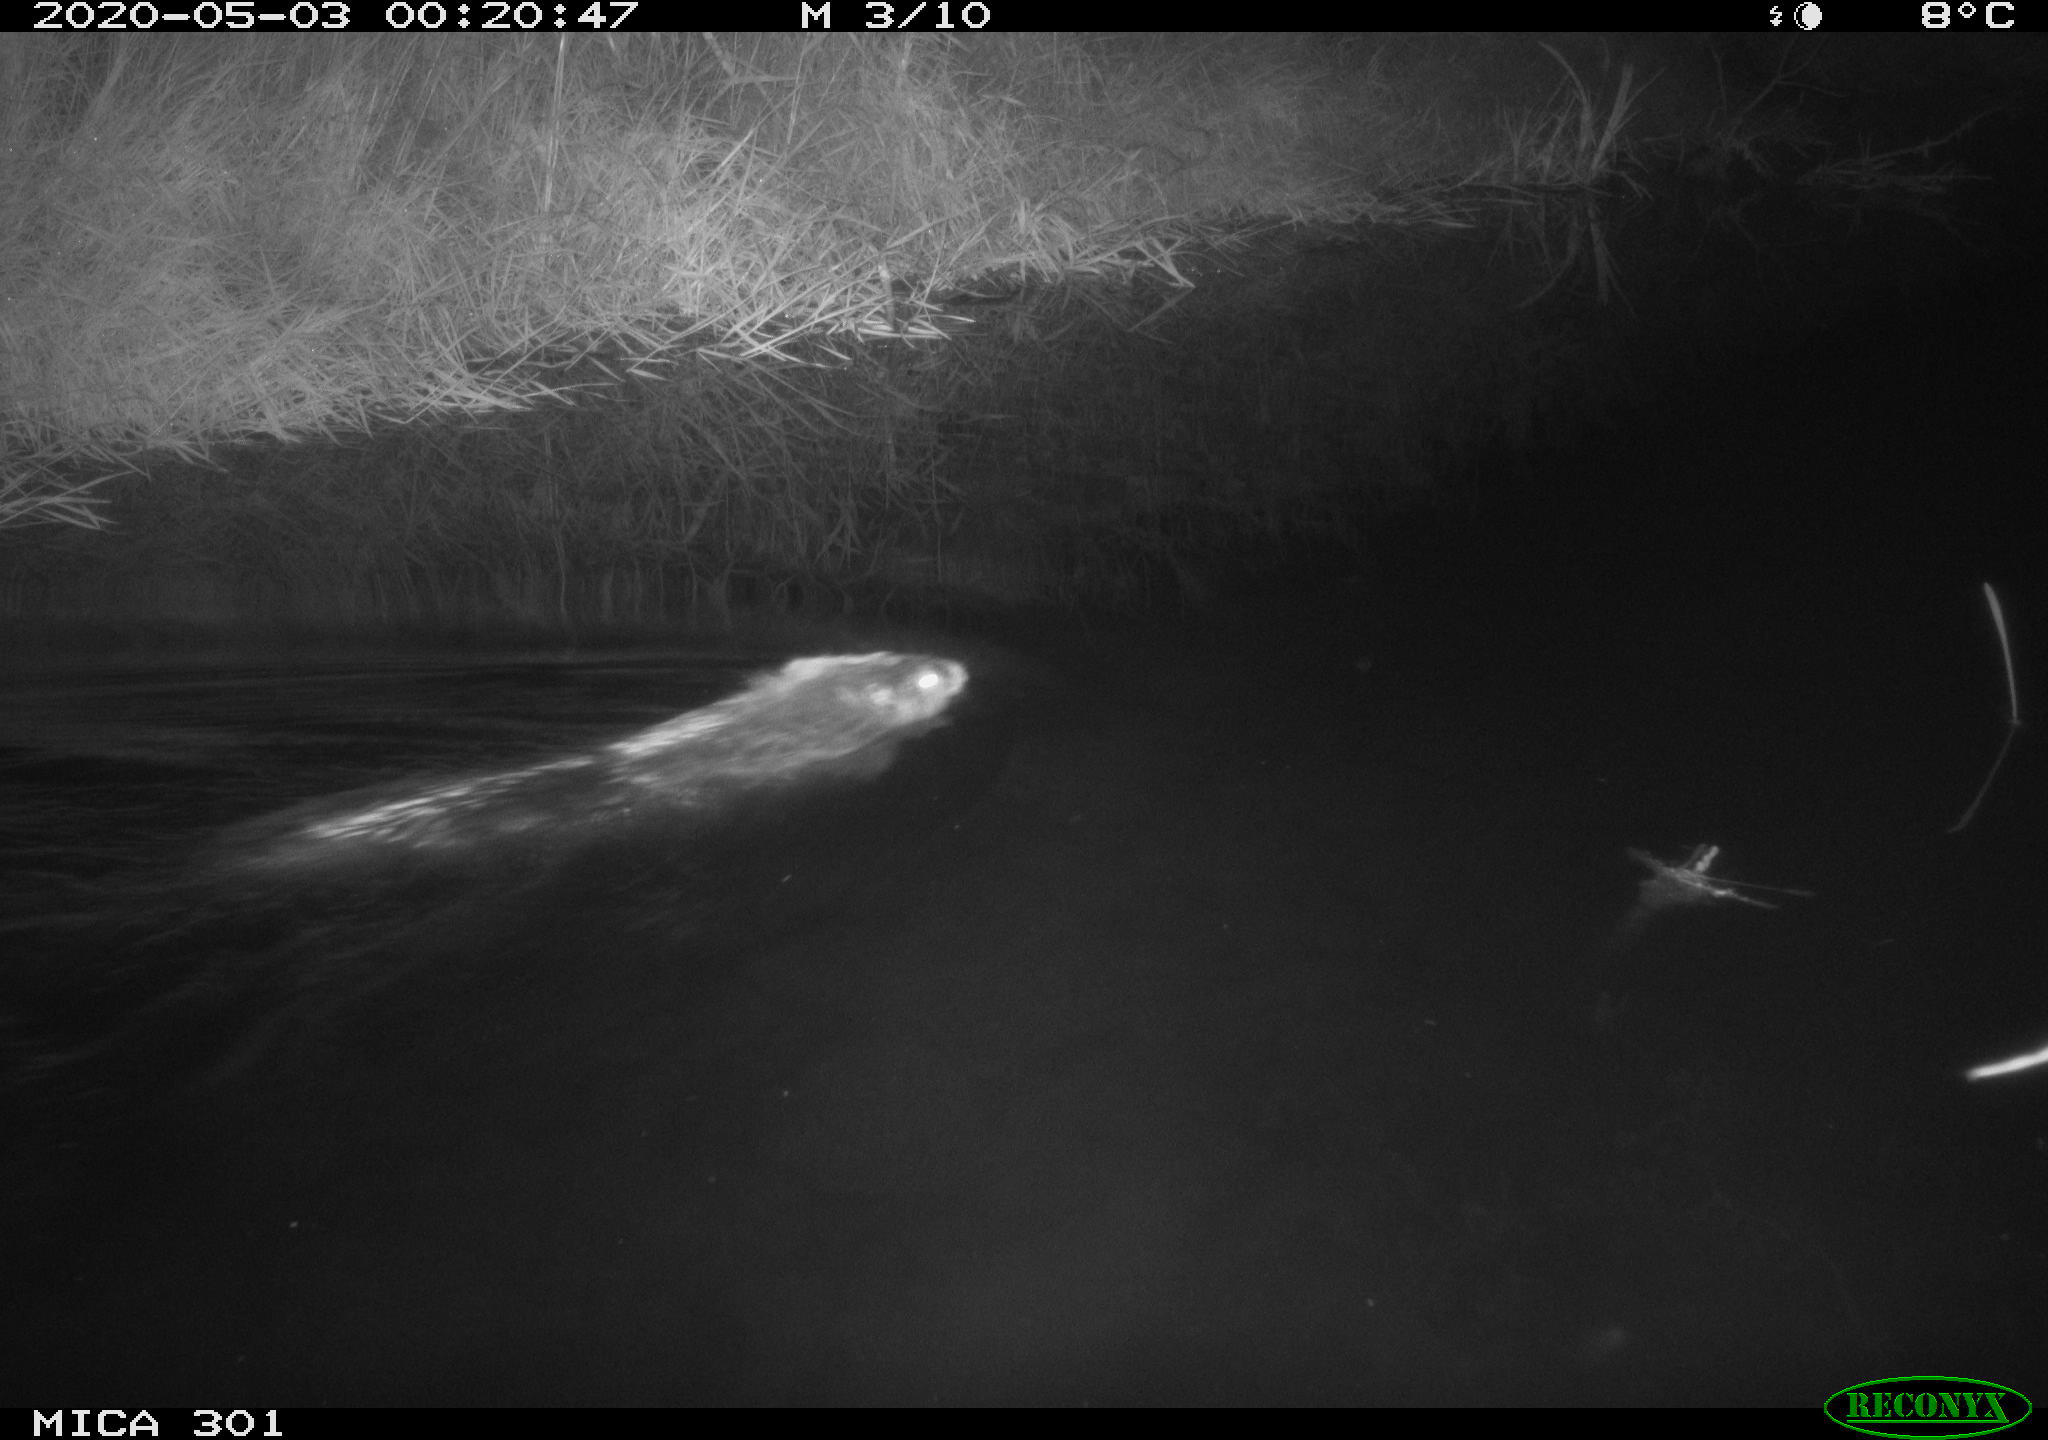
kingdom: Animalia
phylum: Chordata
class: Mammalia
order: Rodentia
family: Castoridae
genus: Castor
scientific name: Castor fiber
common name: Eurasian beaver
